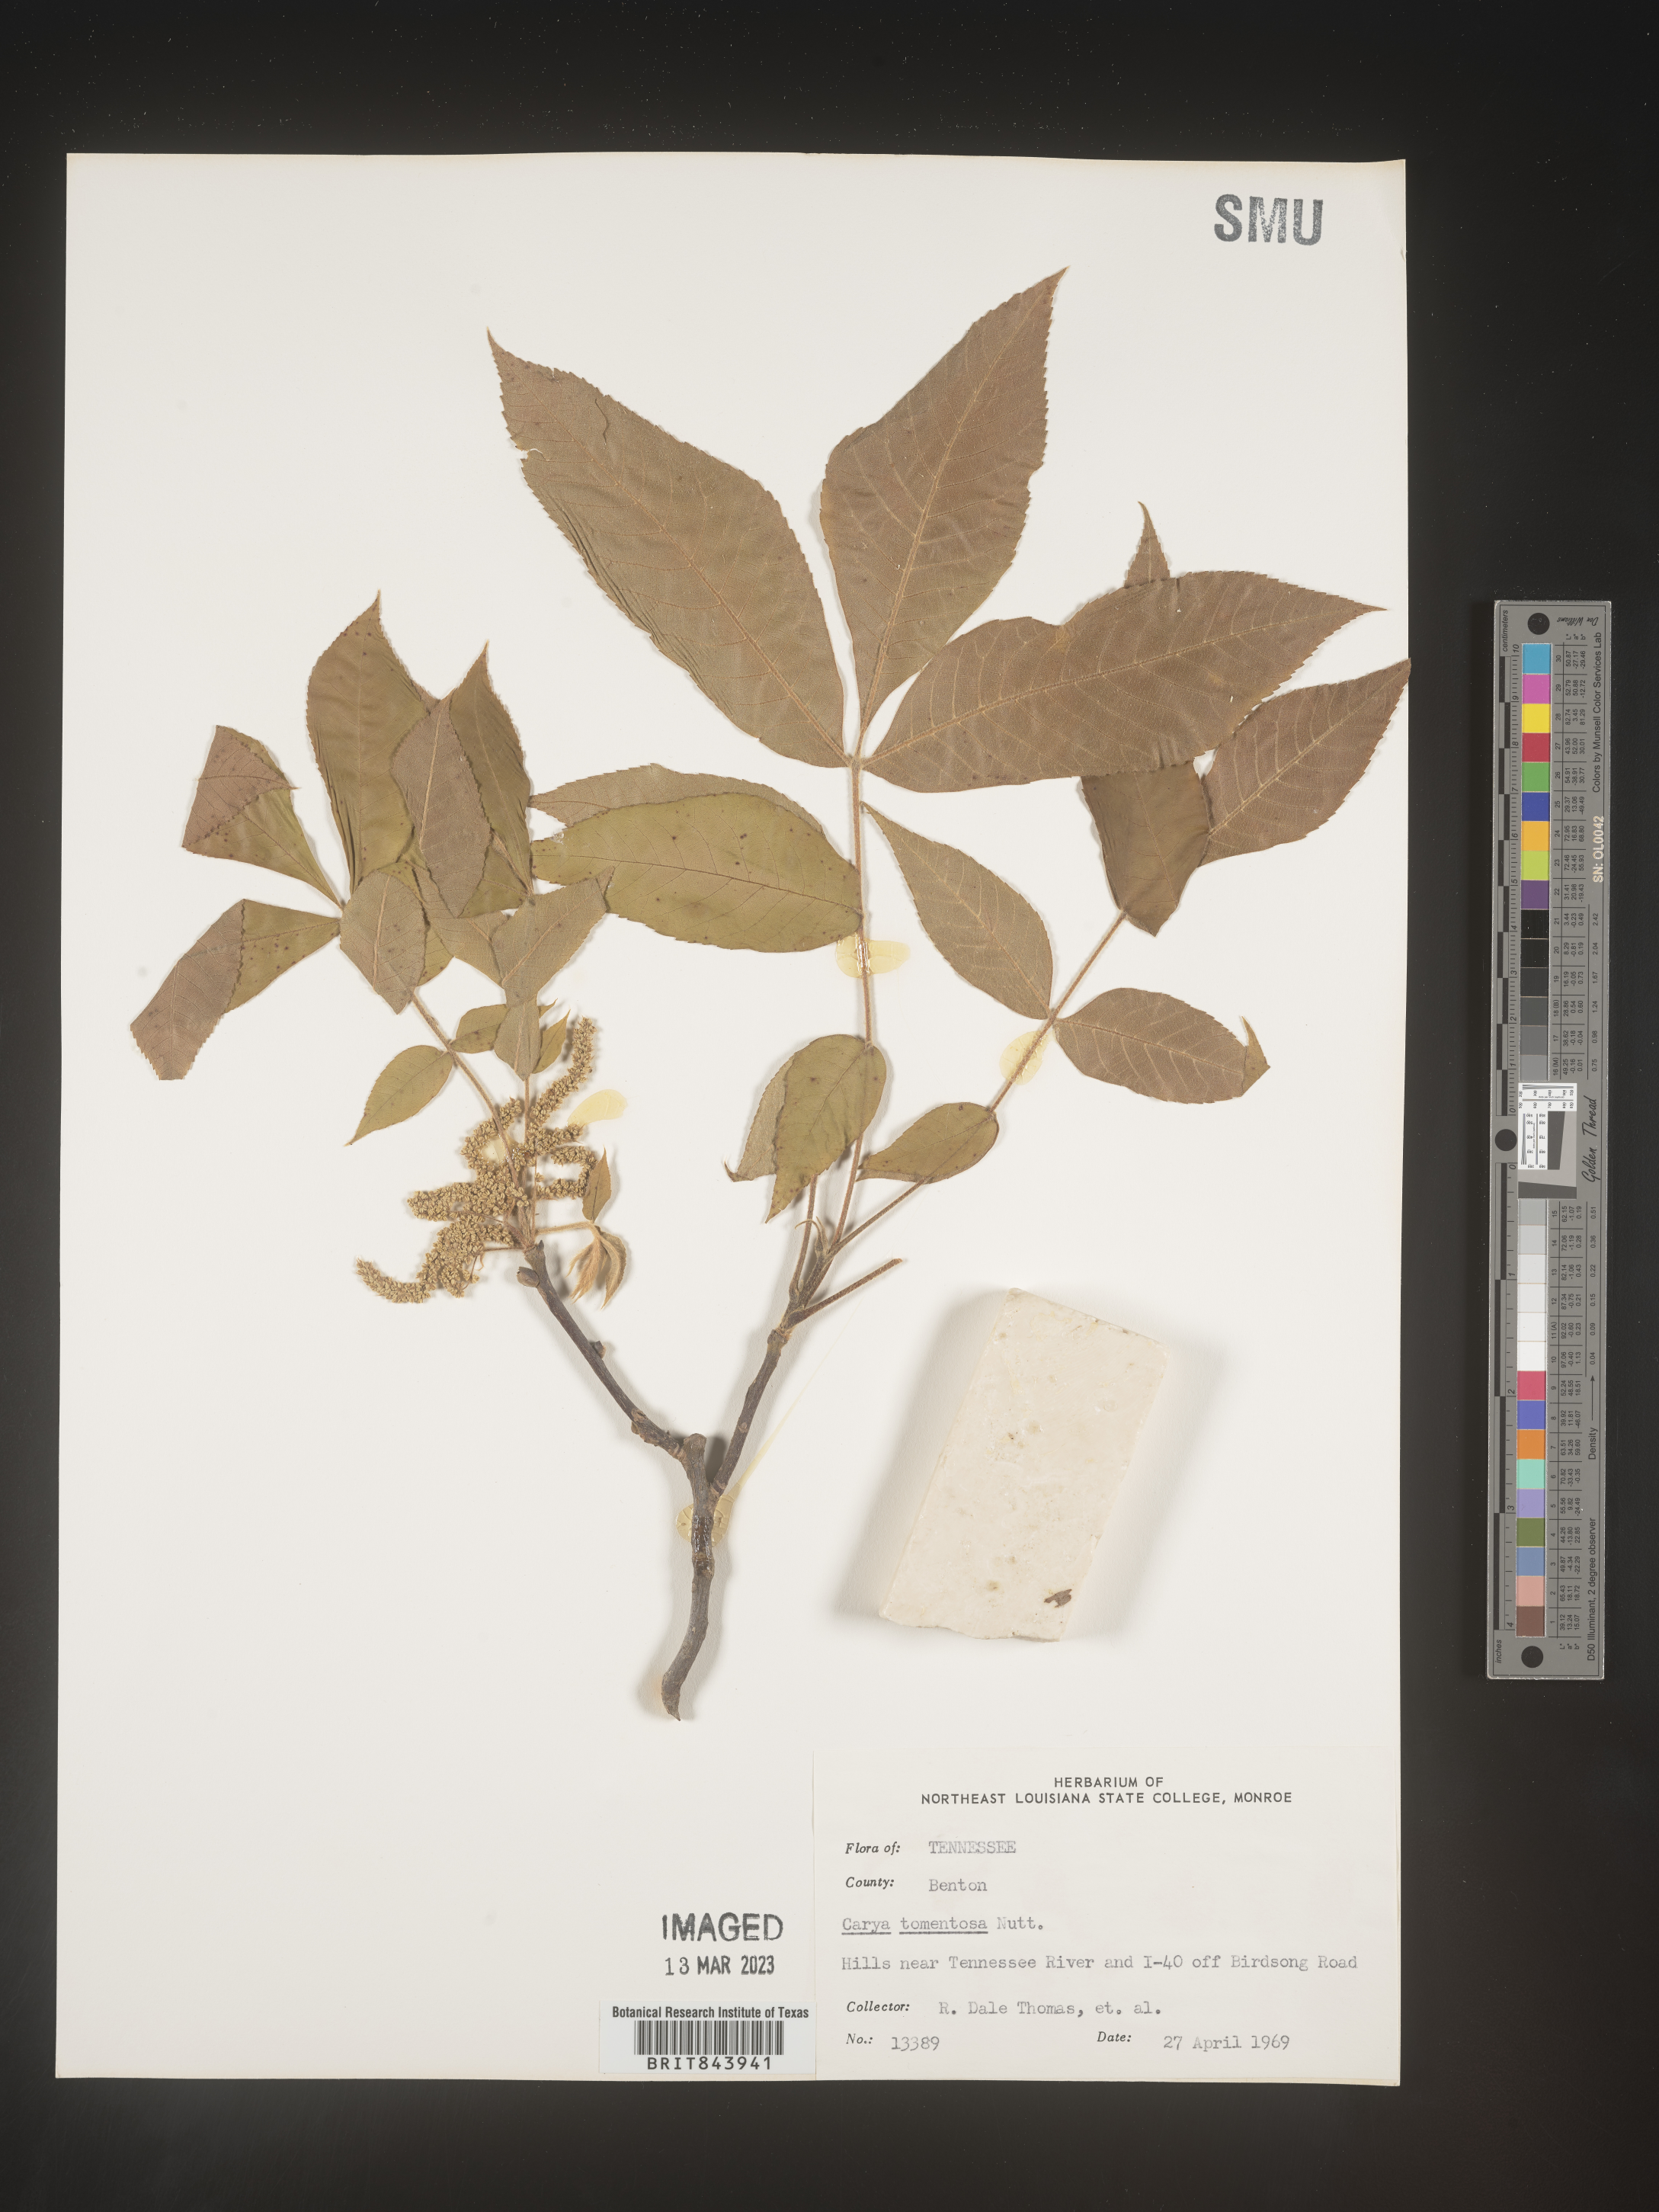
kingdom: Plantae
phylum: Tracheophyta
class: Magnoliopsida
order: Fagales
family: Juglandaceae
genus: Carya
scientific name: Carya alba
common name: Mockernut hickory
